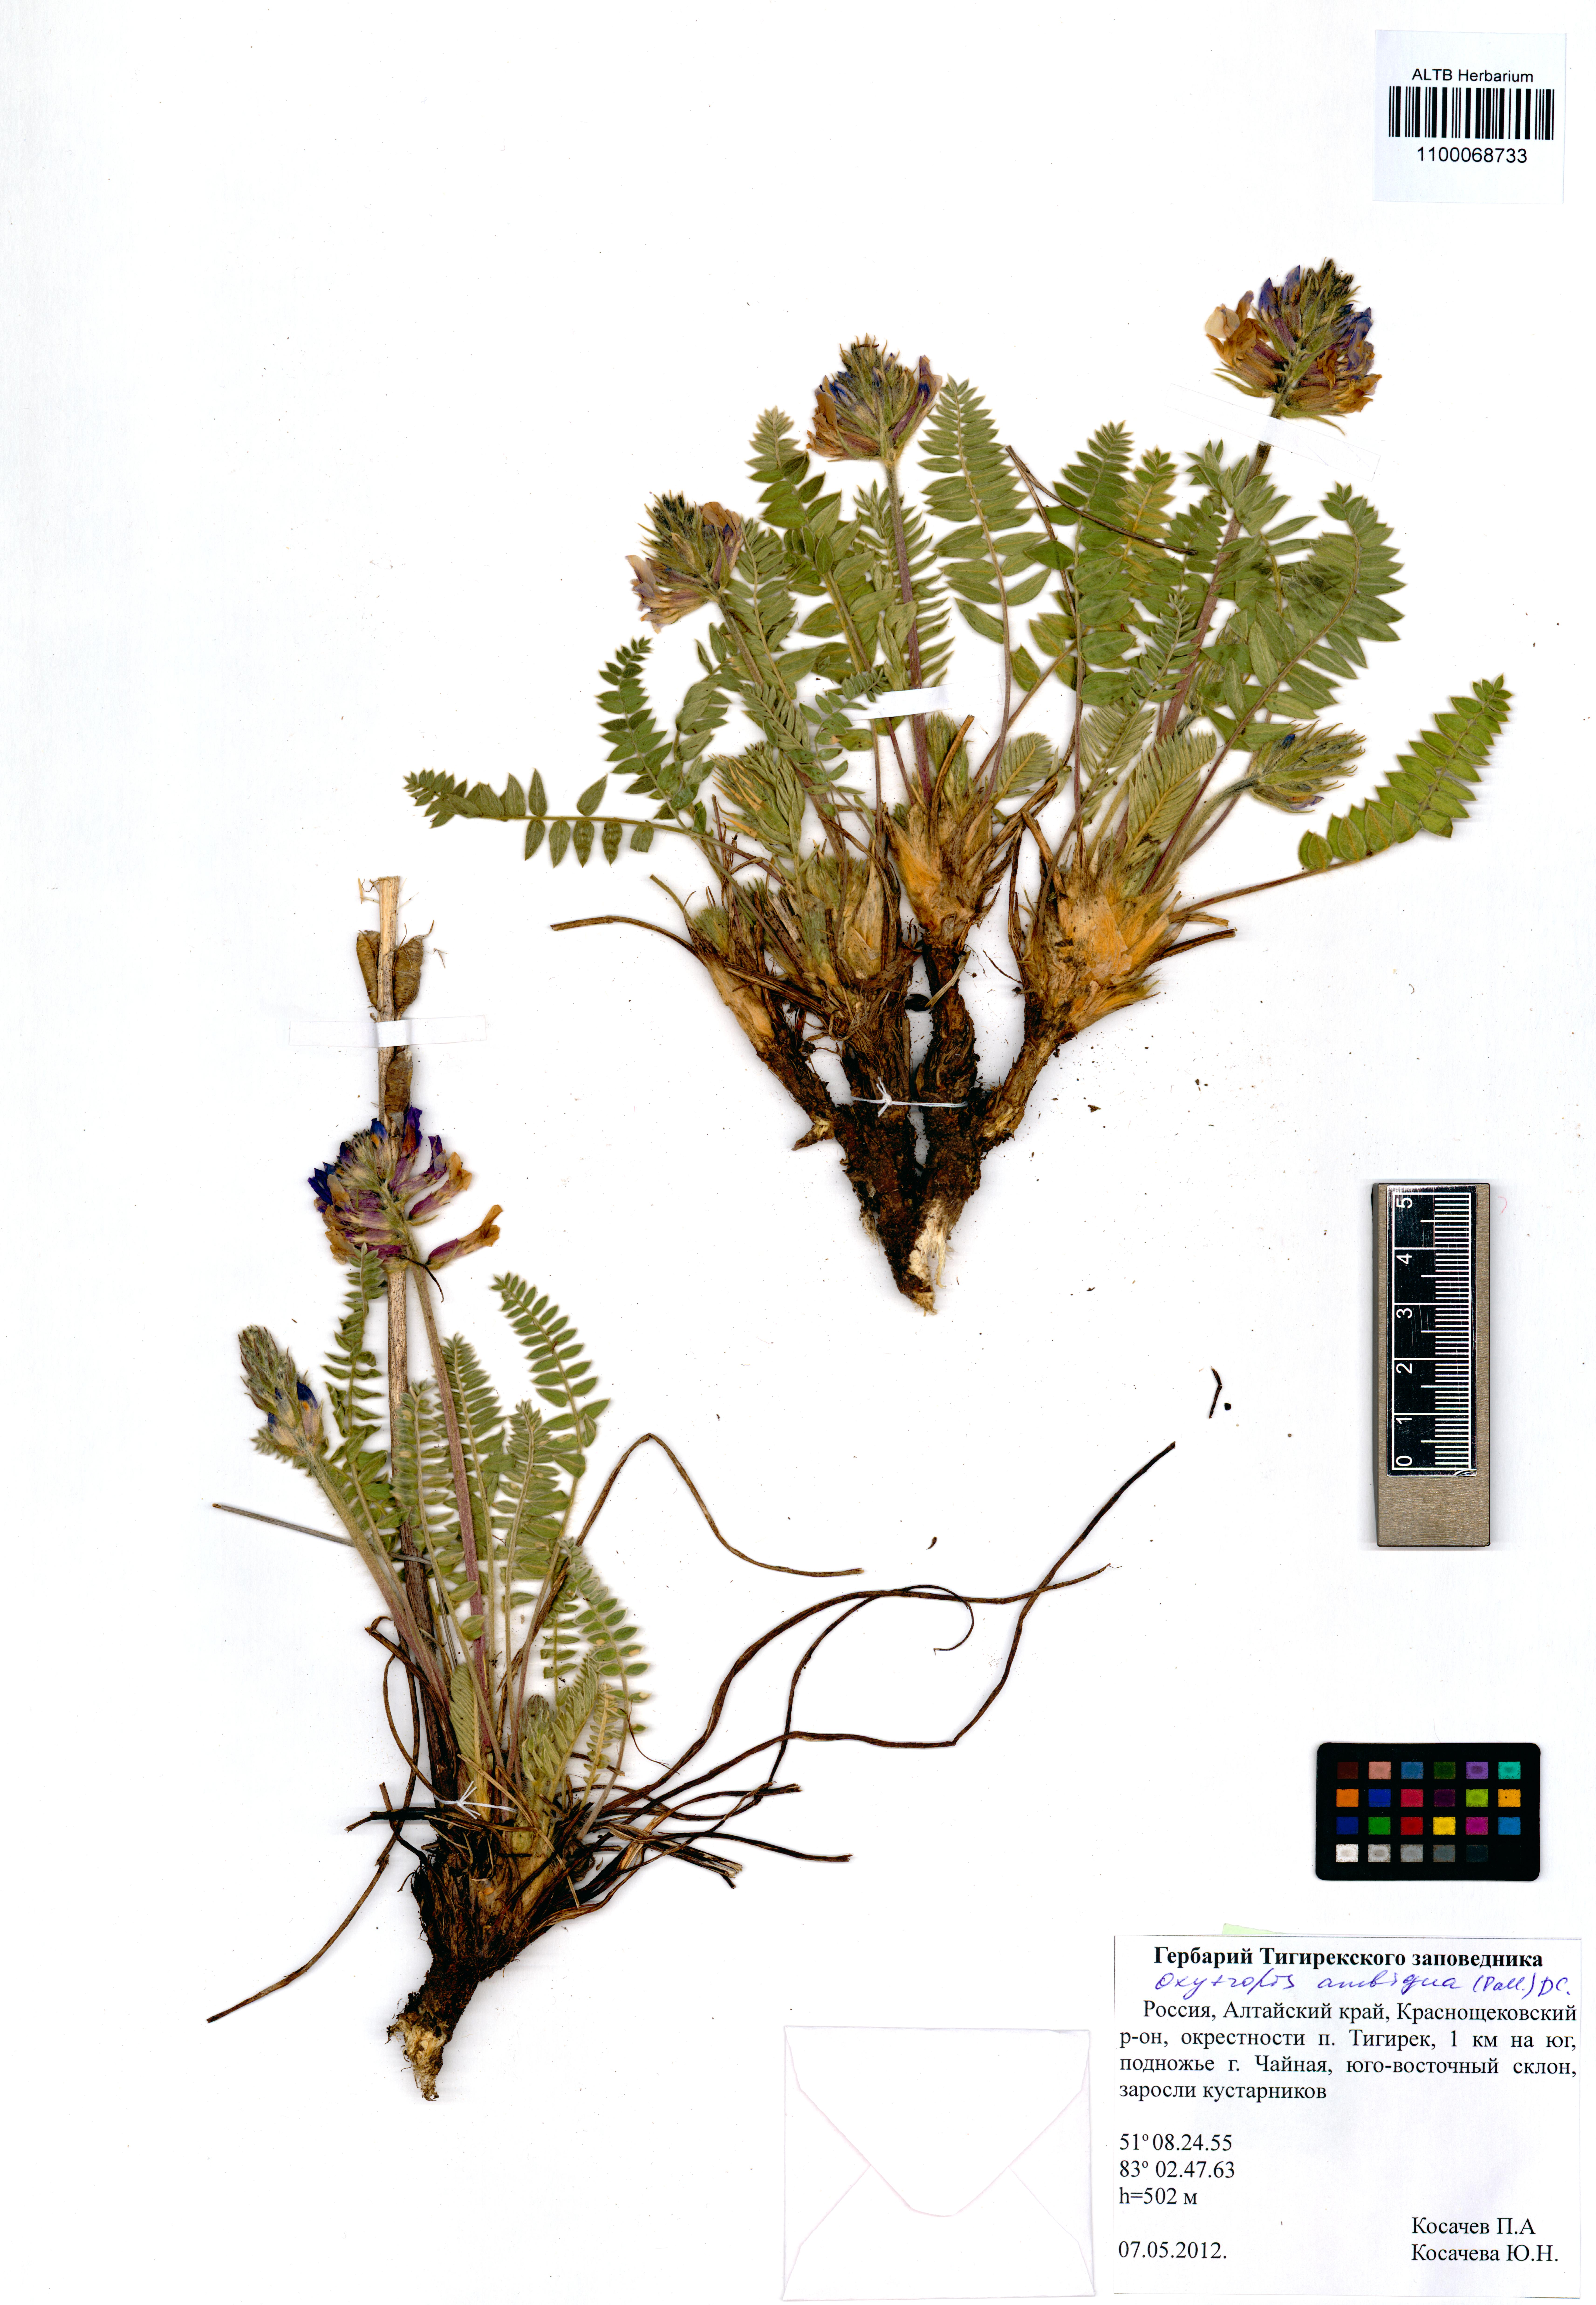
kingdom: Plantae
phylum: Tracheophyta
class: Magnoliopsida
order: Fabales
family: Fabaceae
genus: Oxytropis
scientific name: Oxytropis ambigua
